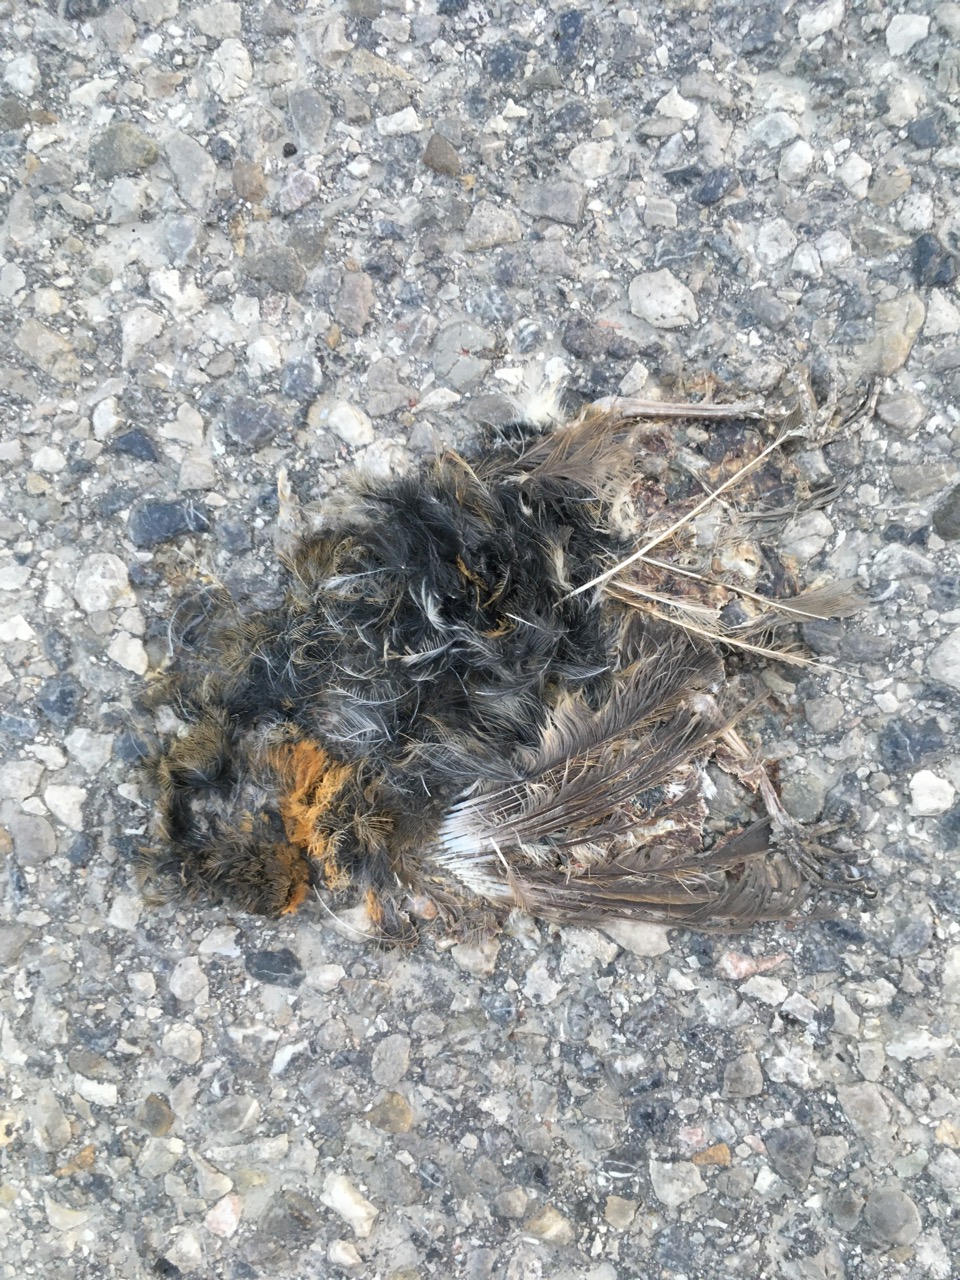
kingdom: Animalia
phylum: Chordata
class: Aves
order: Passeriformes
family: Muscicapidae
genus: Erithacus
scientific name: Erithacus rubecula
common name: European robin
